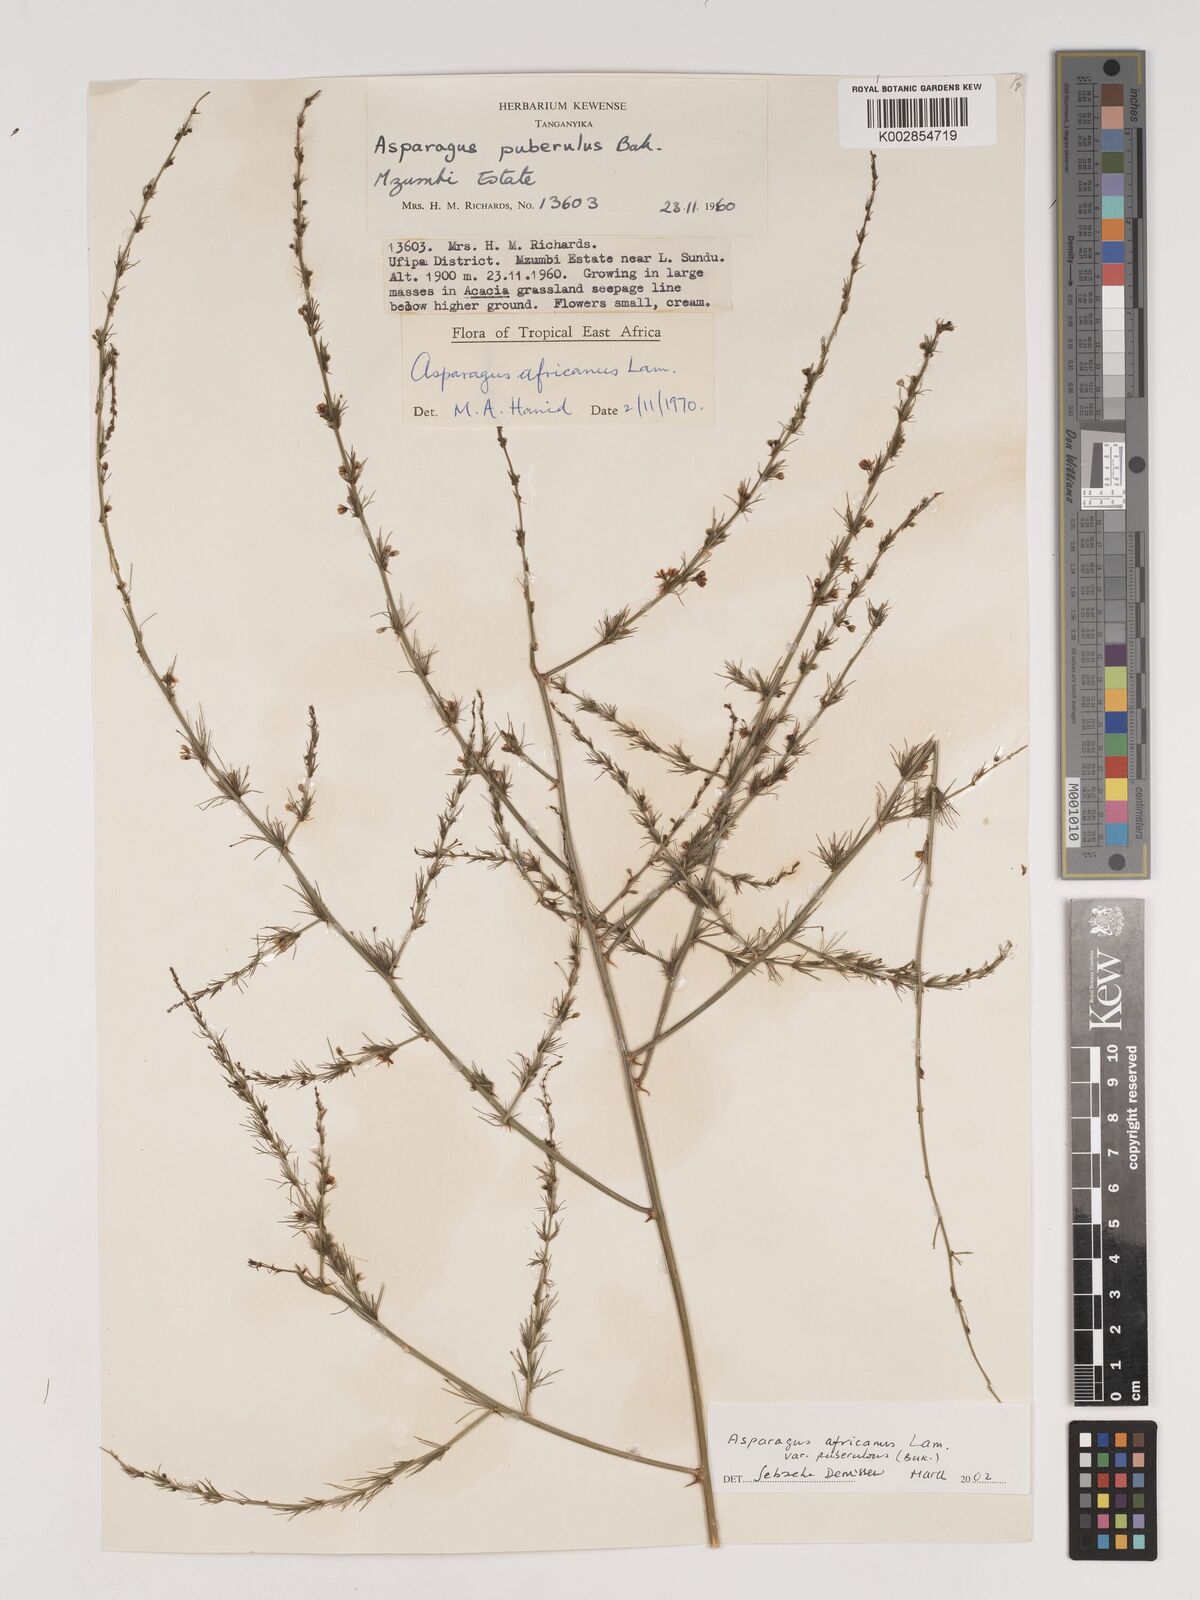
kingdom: Plantae
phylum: Tracheophyta
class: Liliopsida
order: Asparagales
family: Asparagaceae
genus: Asparagus
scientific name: Asparagus africanus
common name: Asparagus-fern
